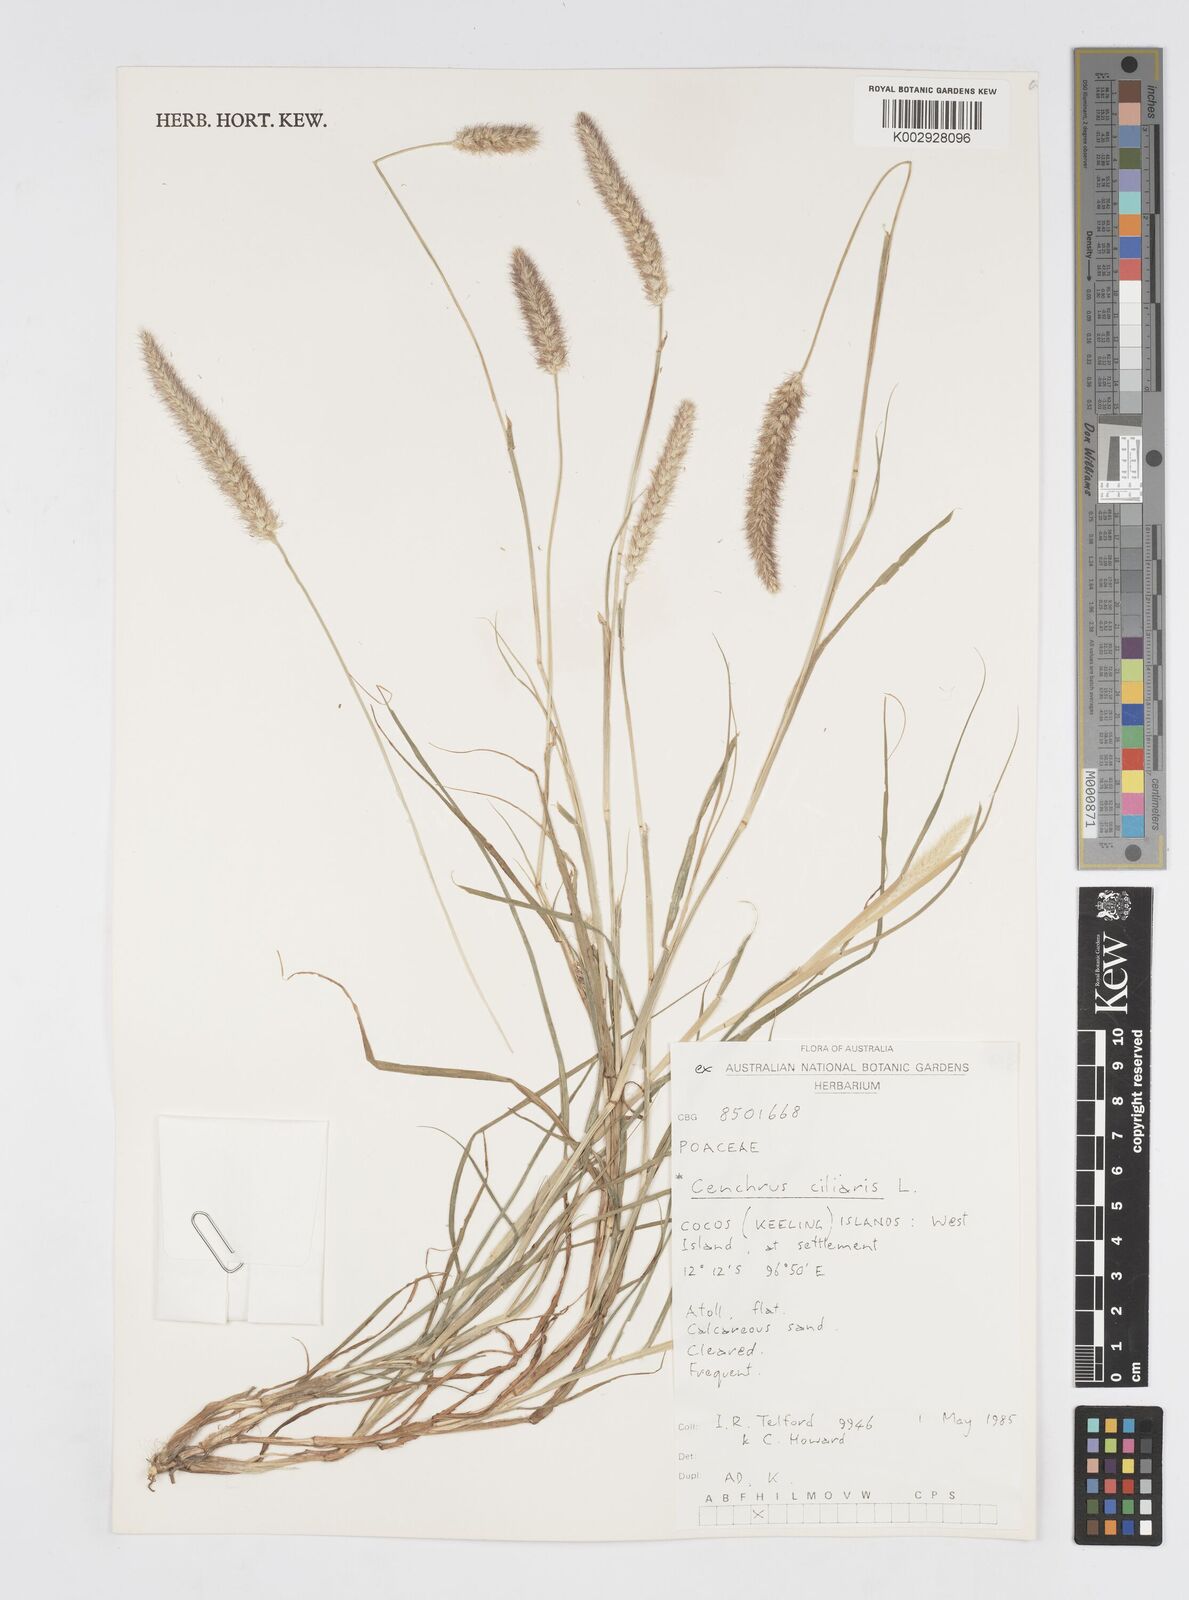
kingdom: Plantae
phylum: Tracheophyta
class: Liliopsida
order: Poales
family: Poaceae
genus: Cenchrus
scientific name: Cenchrus ciliaris
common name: Buffelgrass
